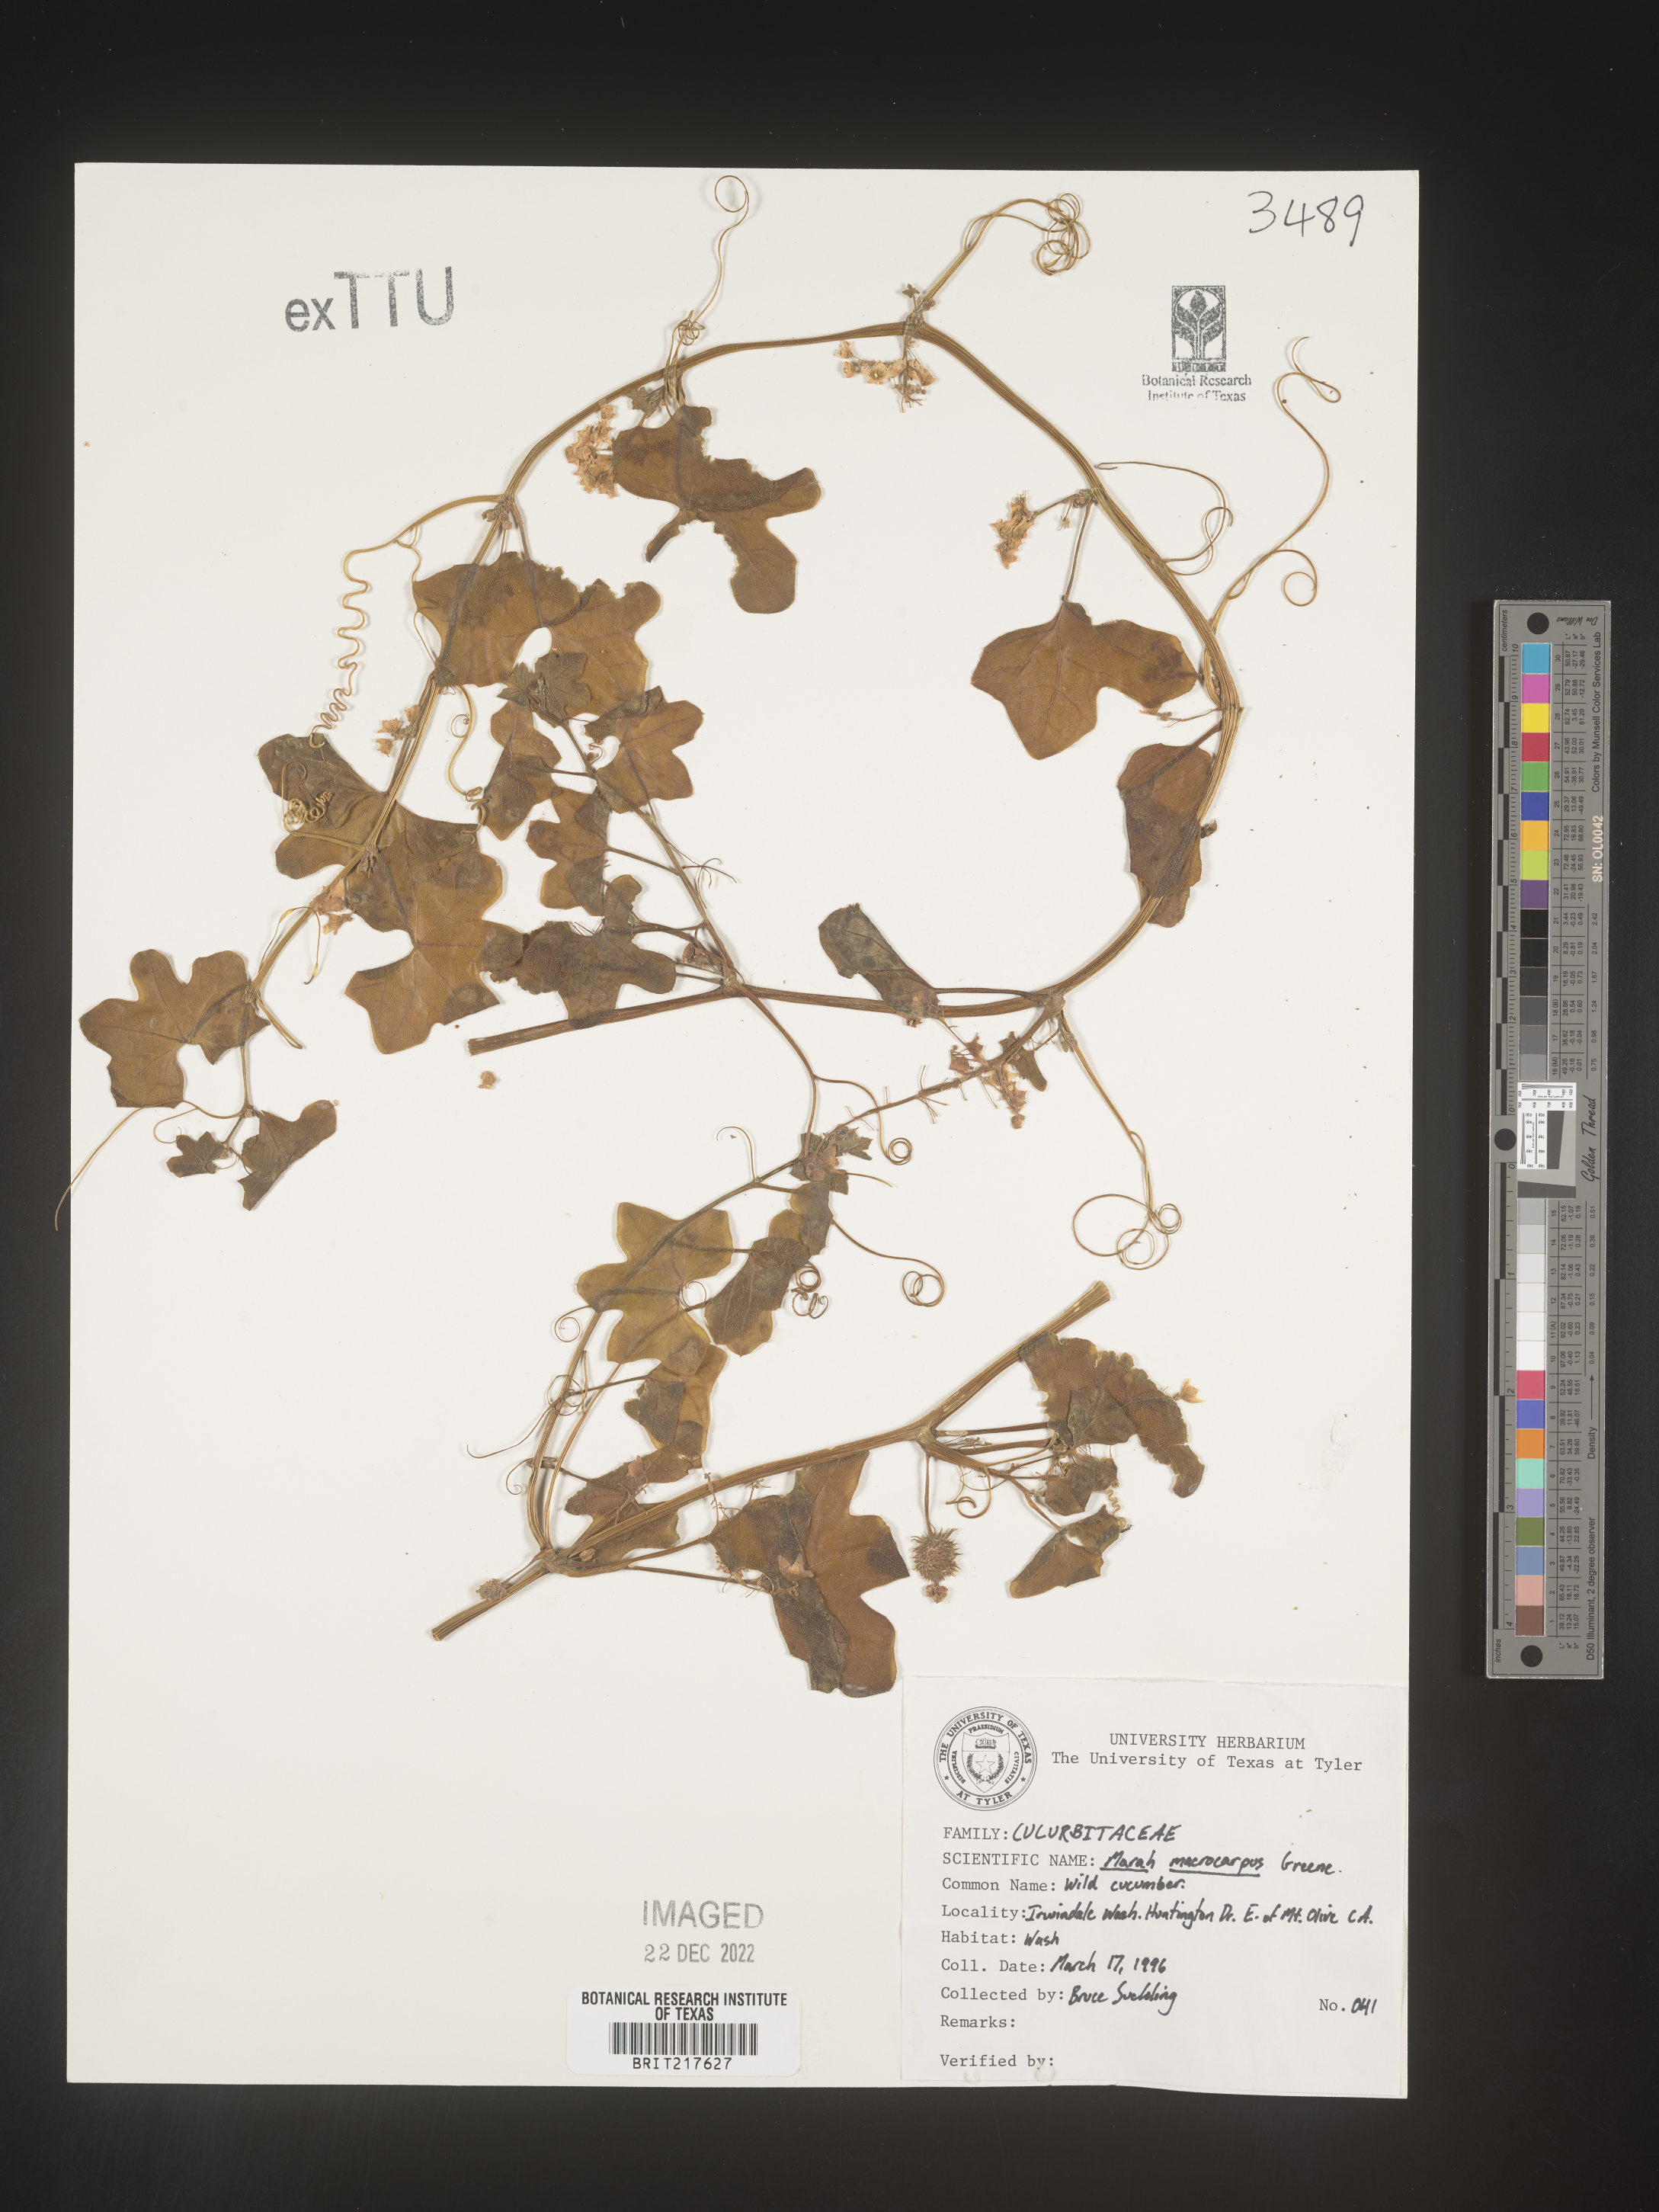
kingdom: Plantae
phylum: Tracheophyta
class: Magnoliopsida
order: Cucurbitales
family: Cucurbitaceae
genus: Marah
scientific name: Marah
